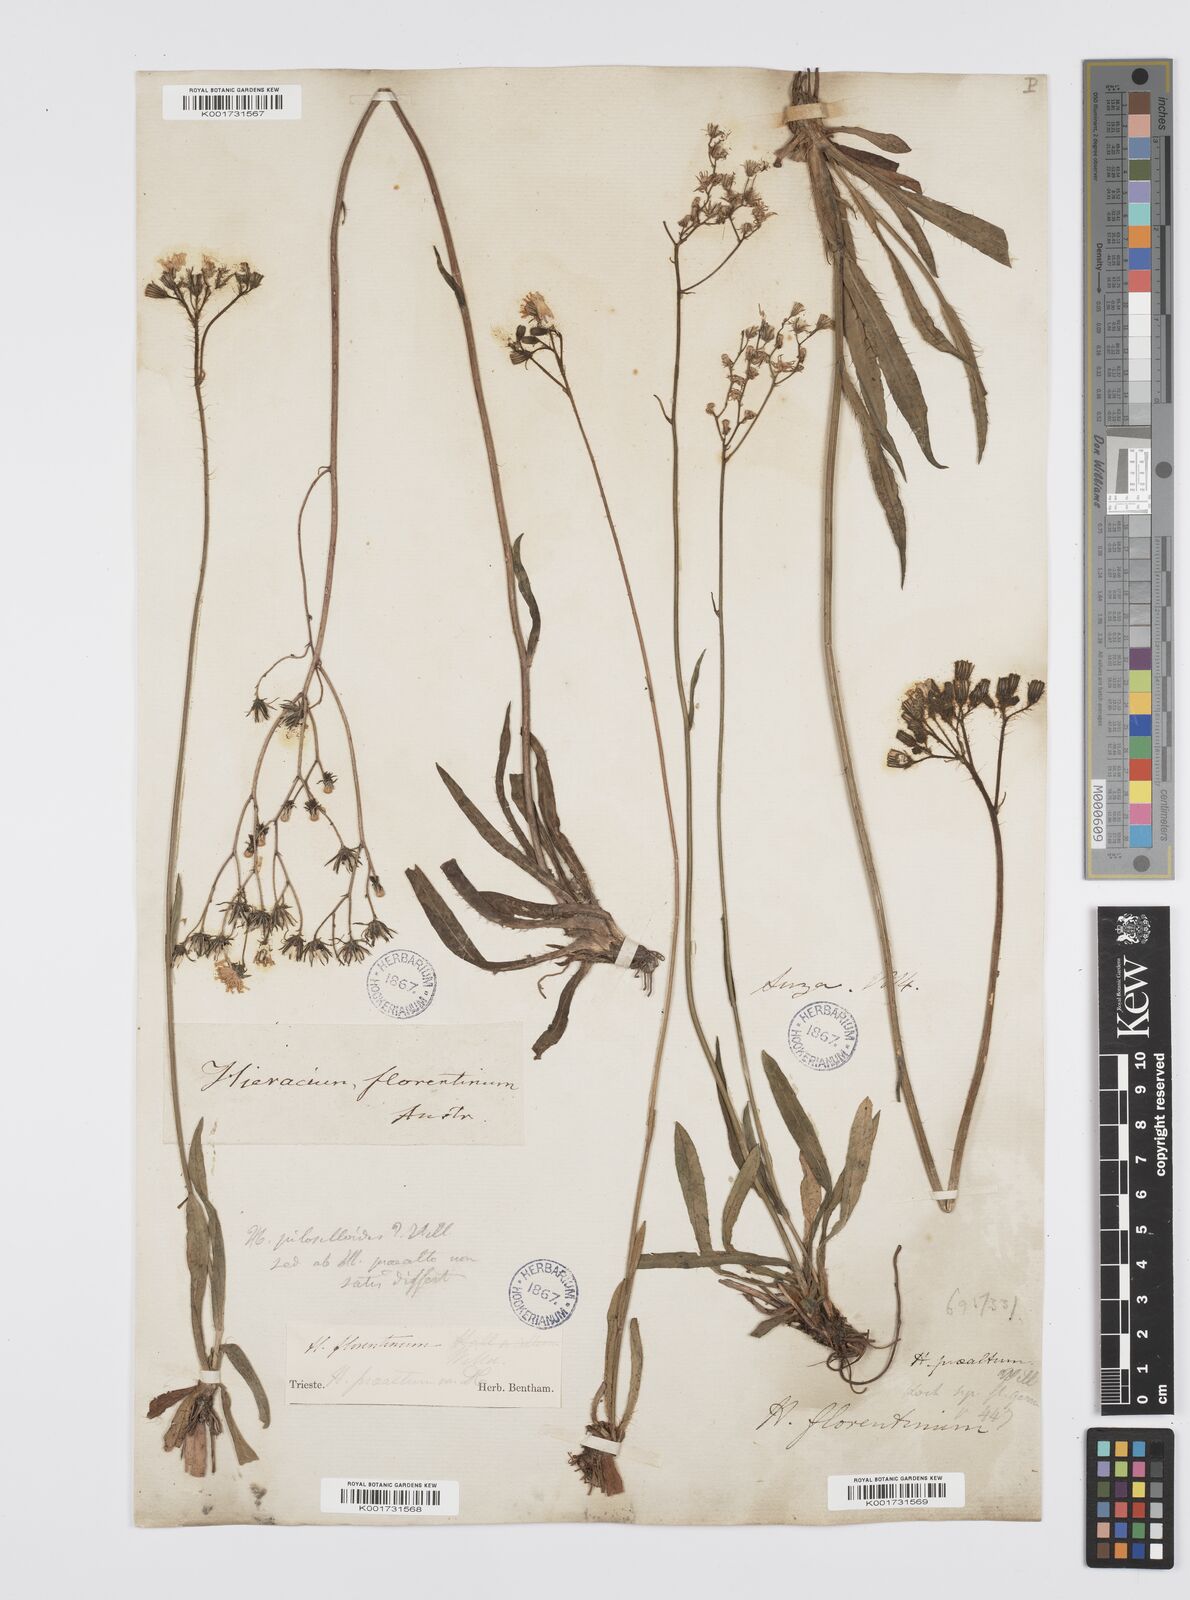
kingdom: Plantae
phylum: Tracheophyta
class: Magnoliopsida
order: Asterales
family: Asteraceae
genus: Pilosella
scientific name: Pilosella piloselloides
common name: Glaucous king-devil
